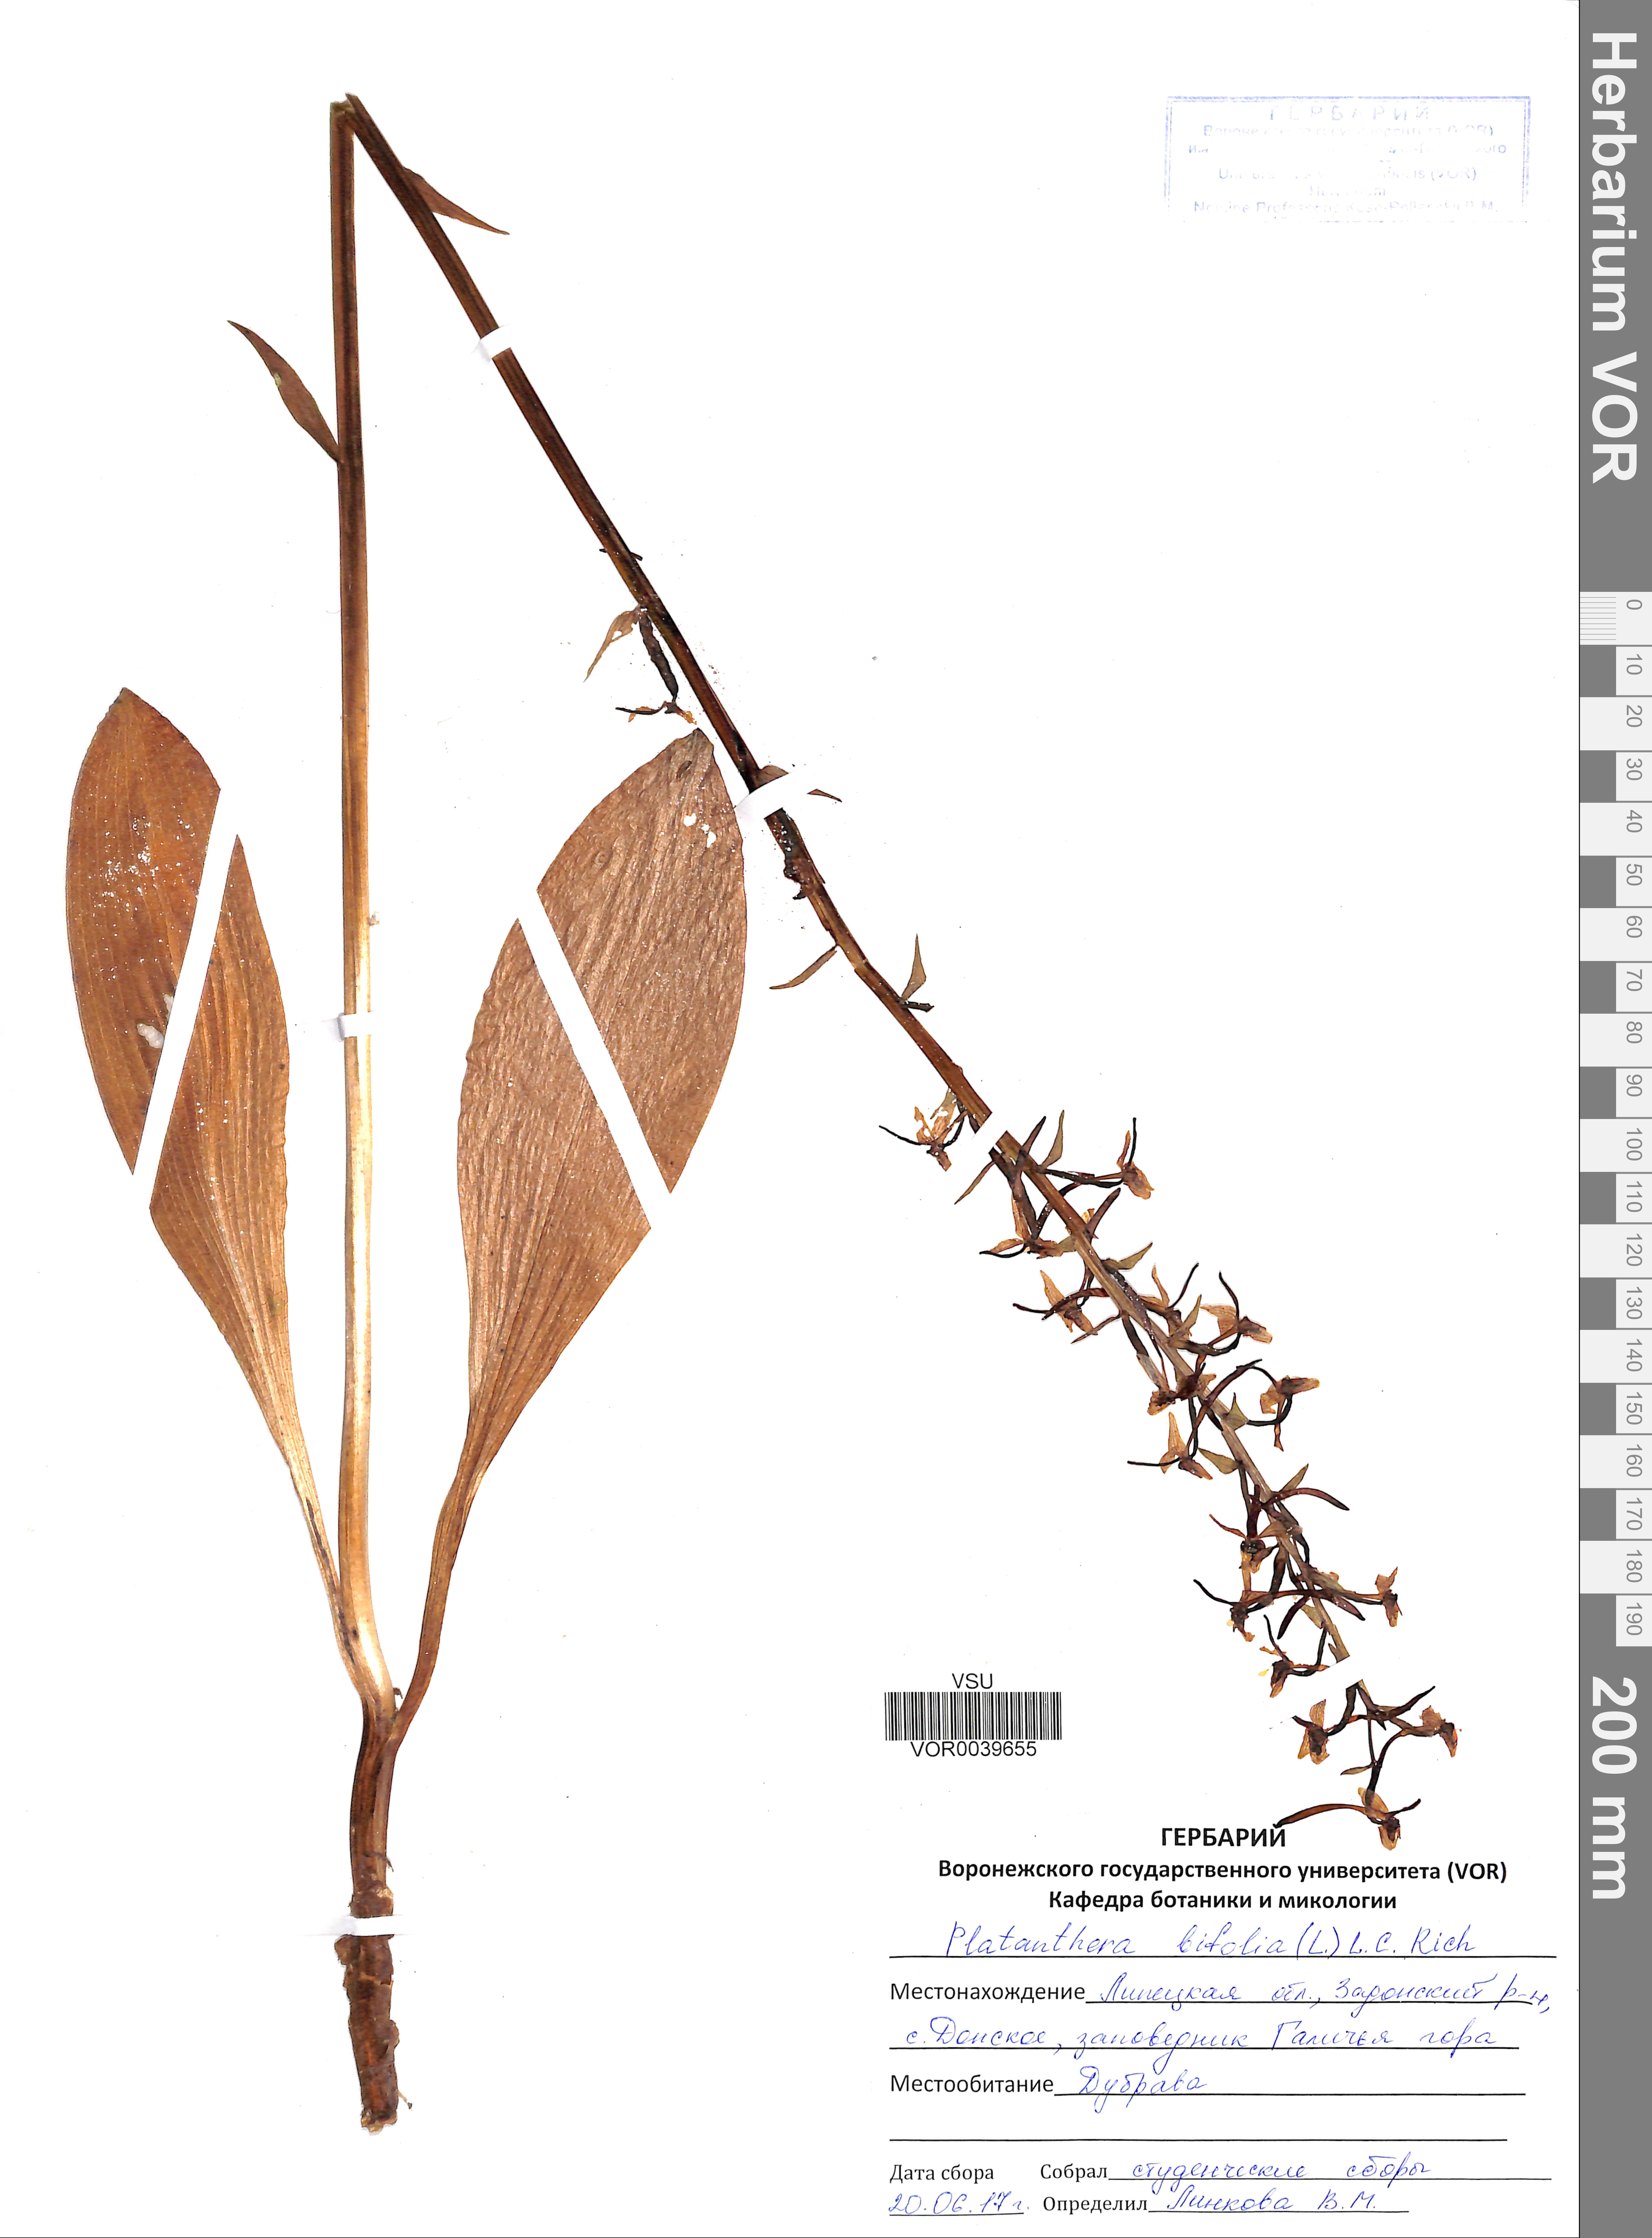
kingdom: Plantae
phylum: Tracheophyta
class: Liliopsida
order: Asparagales
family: Orchidaceae
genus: Platanthera
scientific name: Platanthera bifolia
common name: Lesser butterfly-orchid
